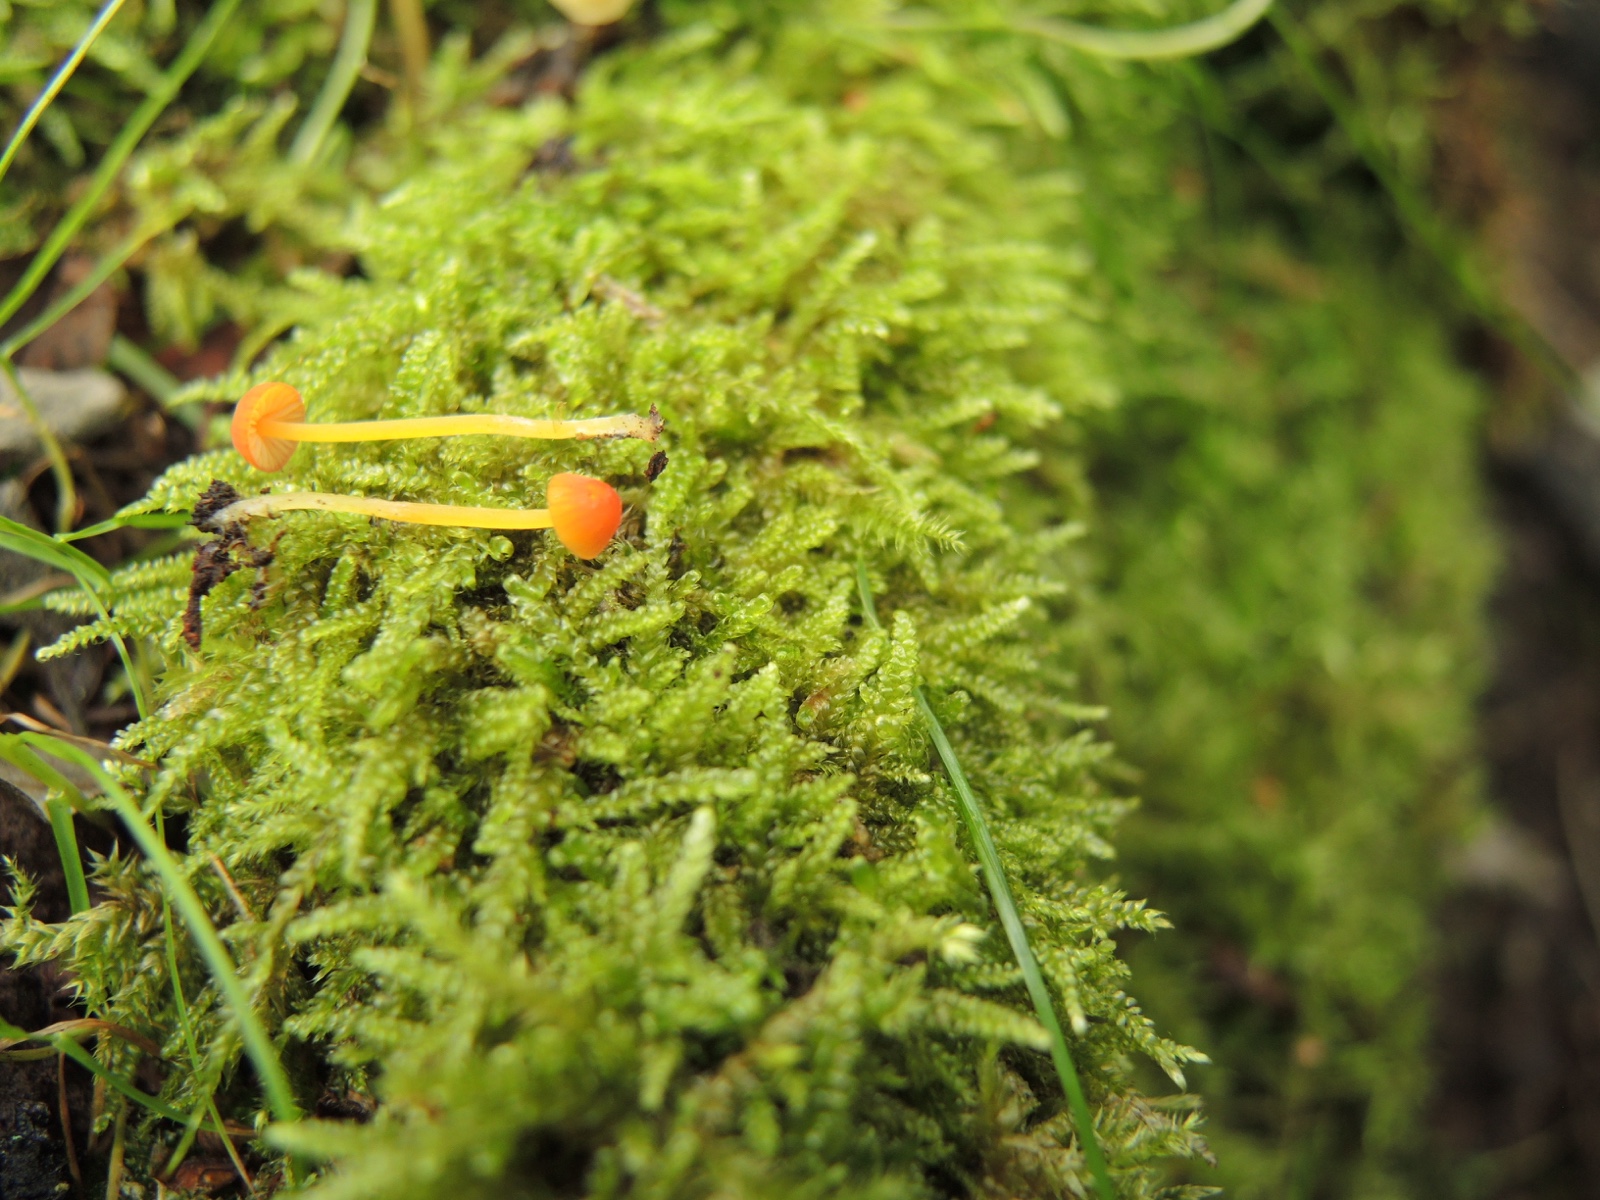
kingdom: Fungi
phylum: Basidiomycota
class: Agaricomycetes
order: Agaricales
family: Mycenaceae
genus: Mycena
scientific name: Mycena acicula
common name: orange huesvamp
